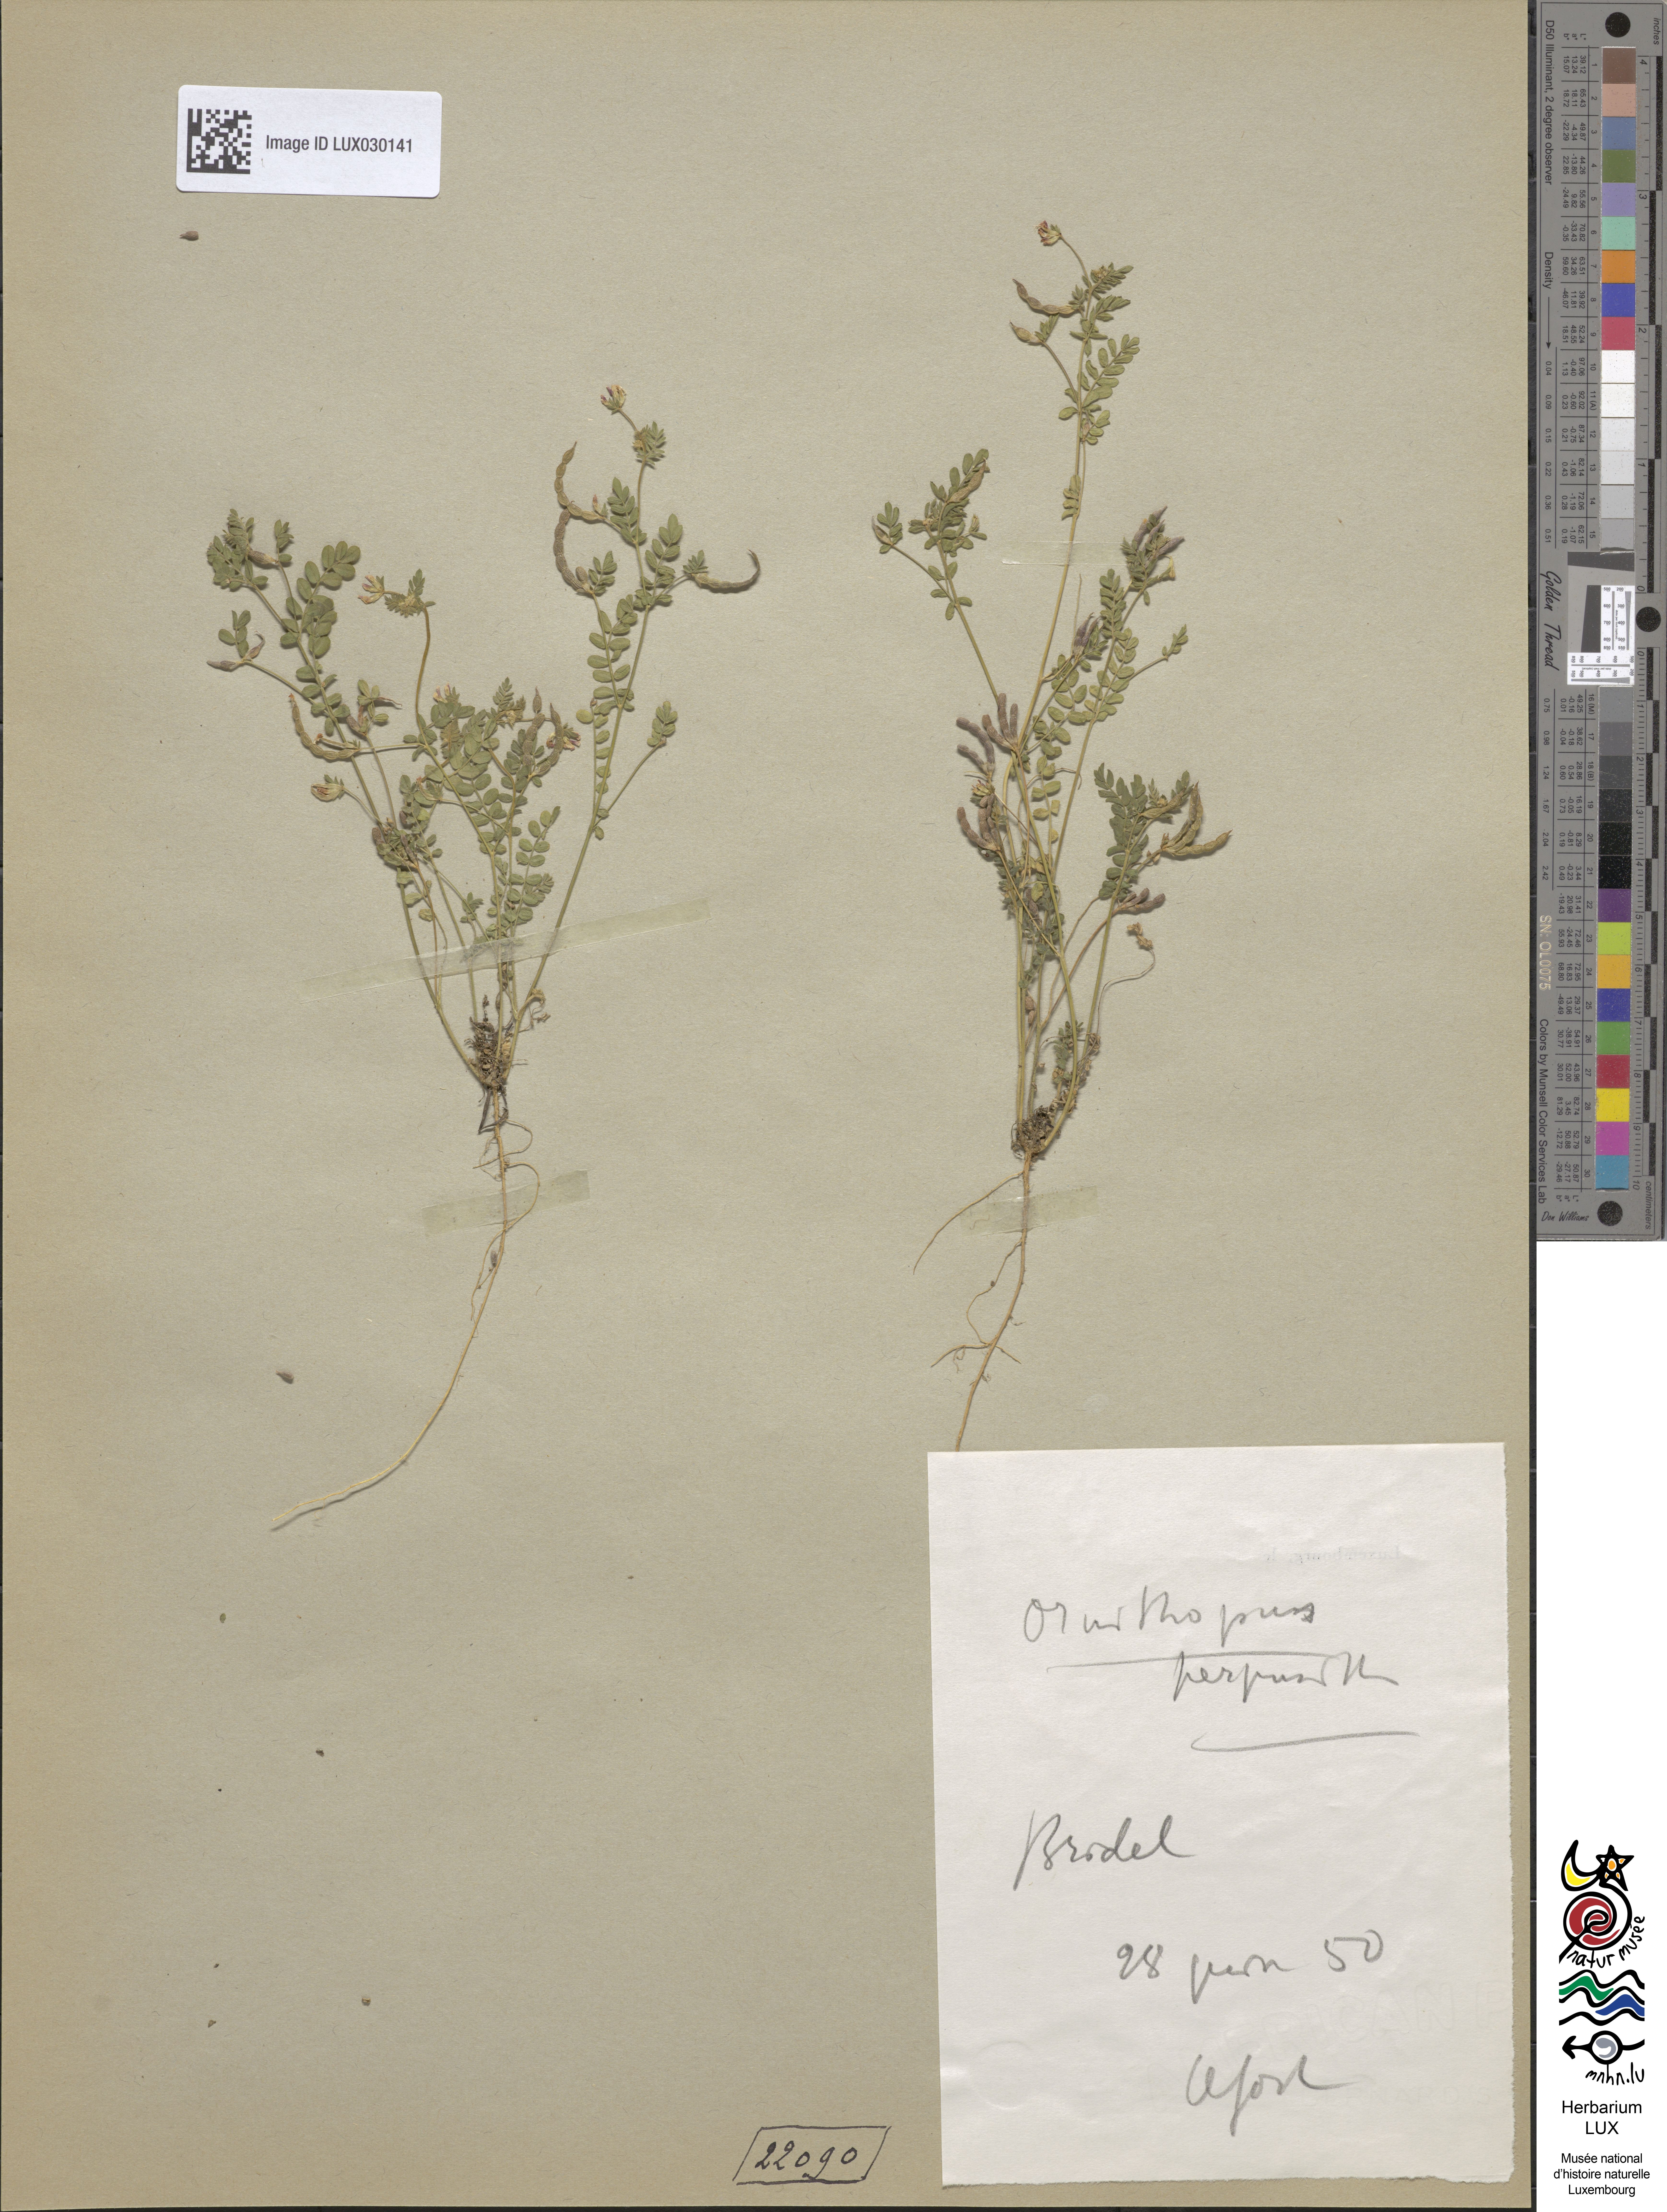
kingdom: Plantae
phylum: Tracheophyta
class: Magnoliopsida
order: Fabales
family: Fabaceae
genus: Ornithopus
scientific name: Ornithopus perpusillus
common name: Bird's-foot
